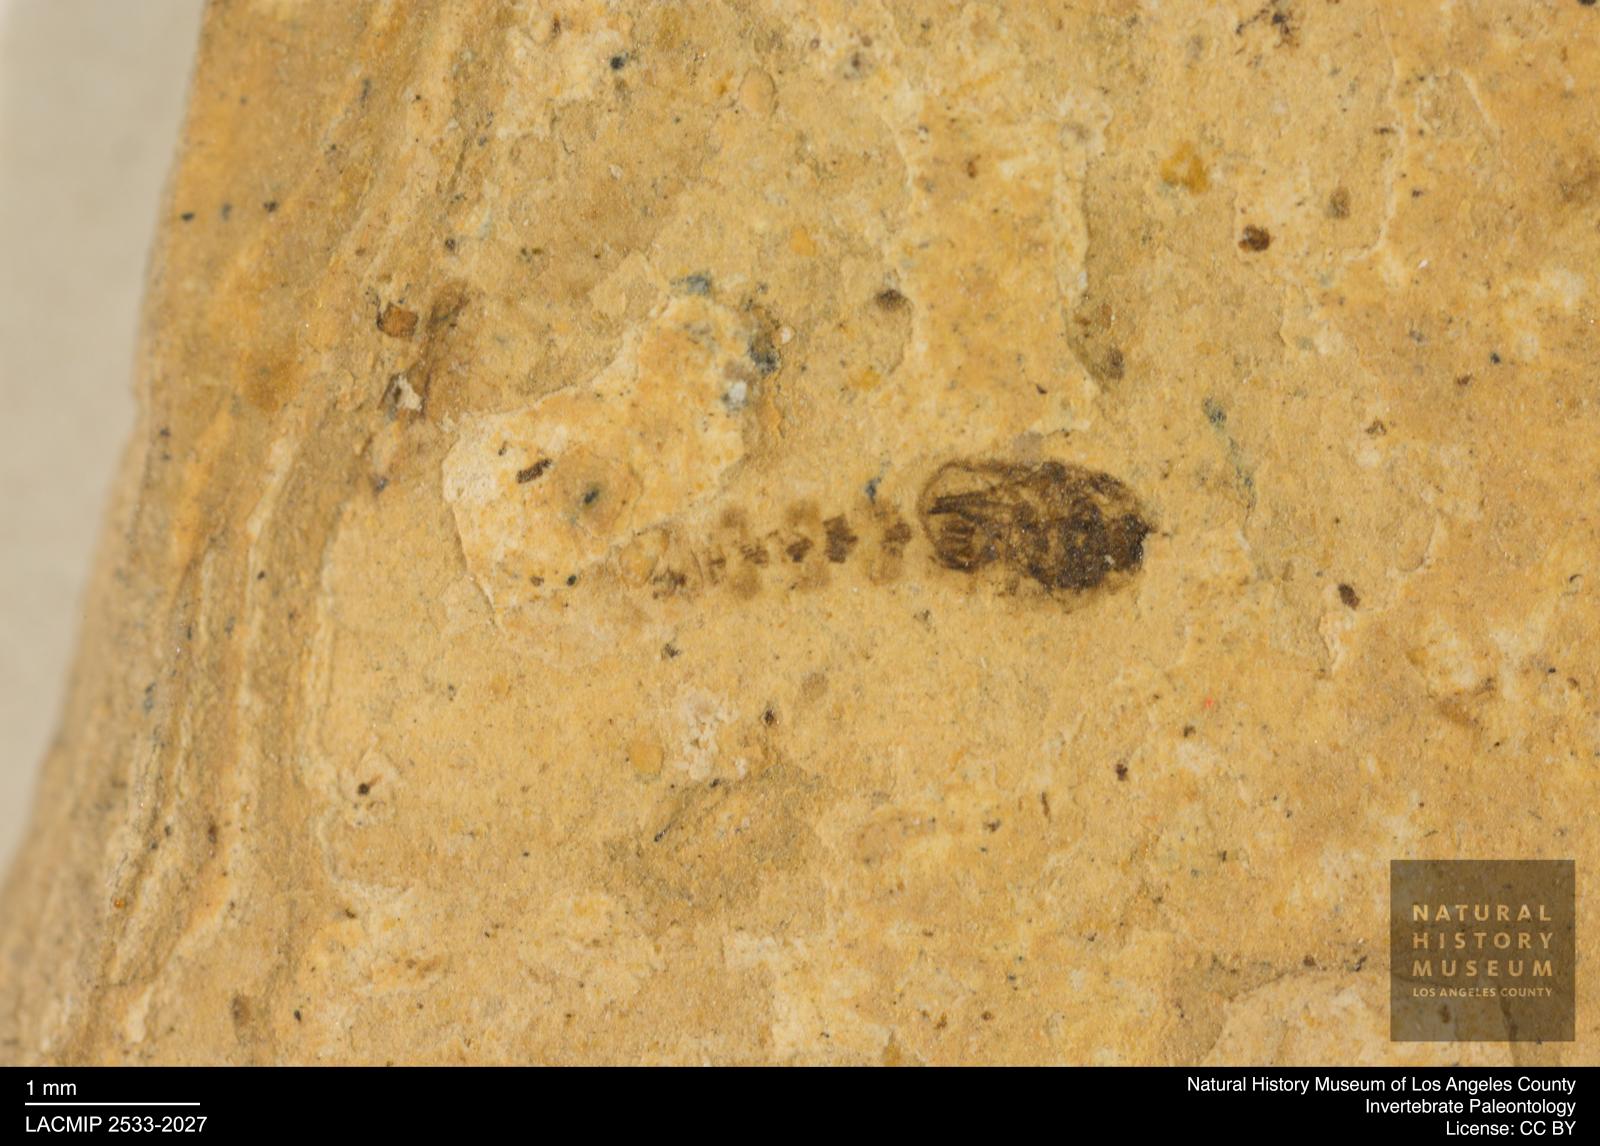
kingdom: Animalia
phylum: Arthropoda
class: Insecta
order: Diptera
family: Ceratopogonidae
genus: Ceratopogon
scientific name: Ceratopogon
